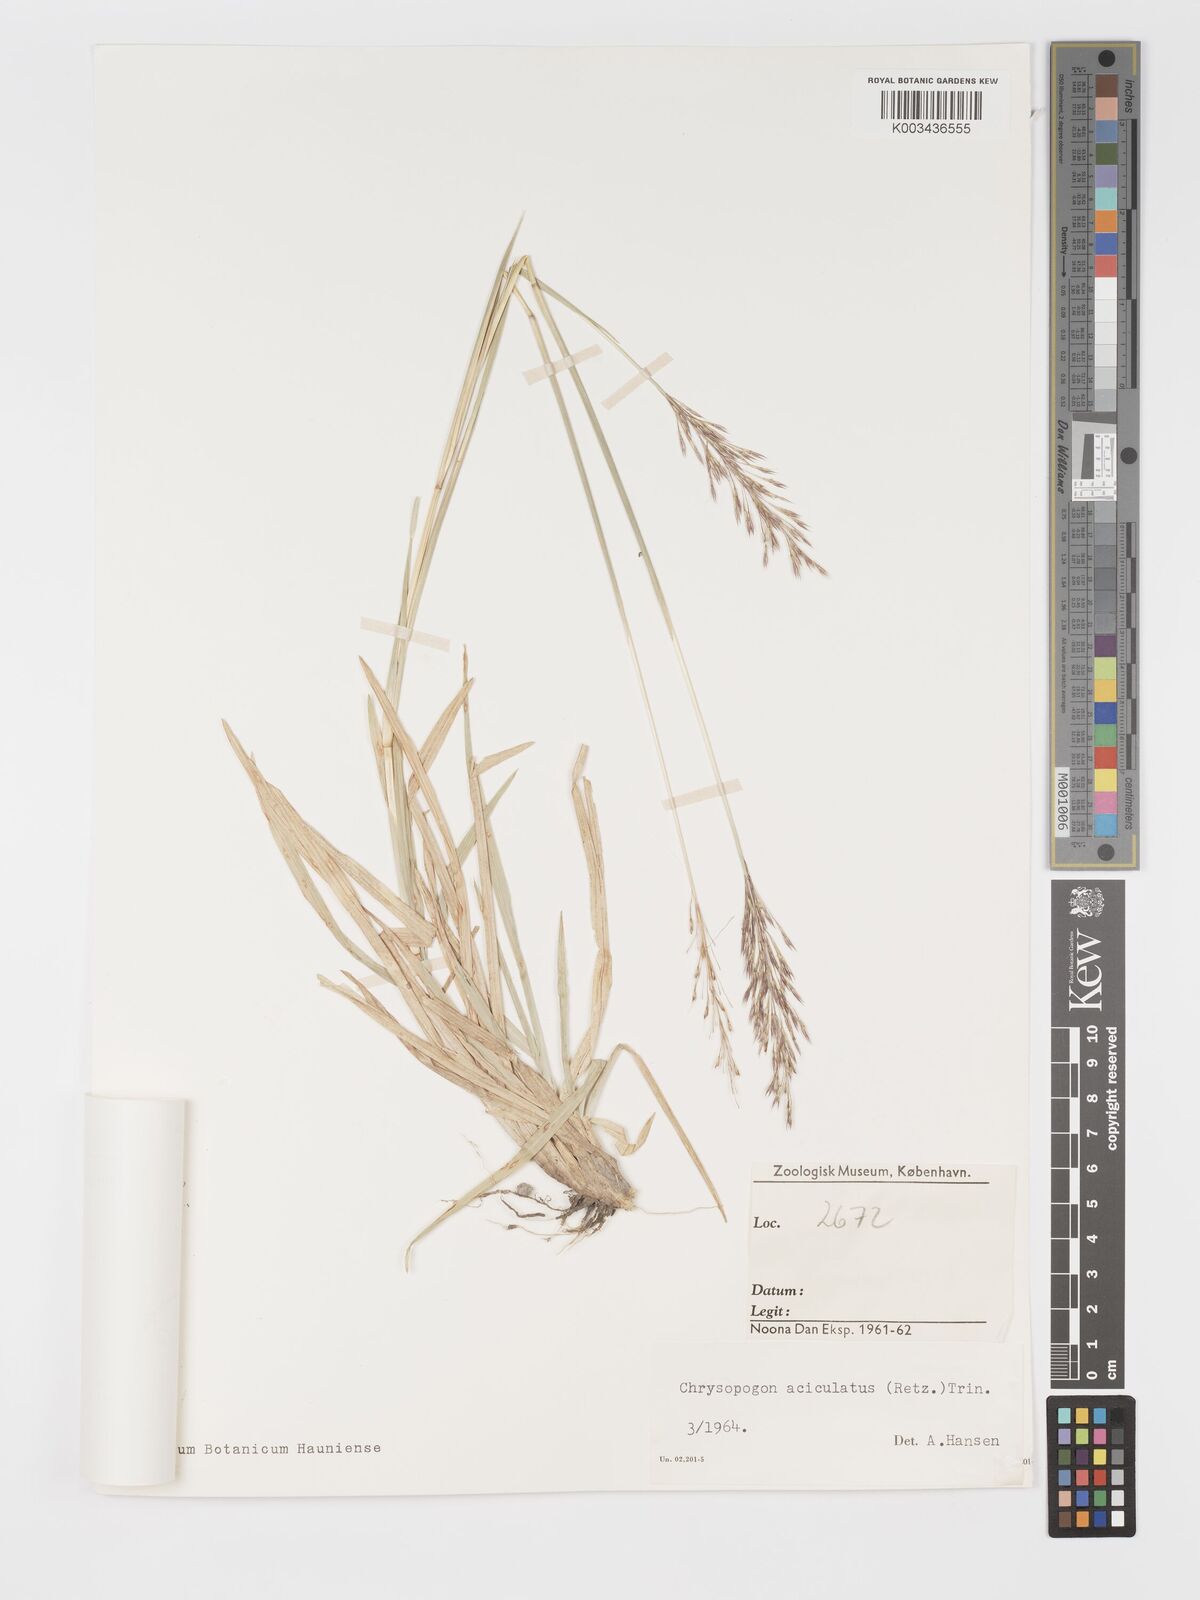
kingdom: Plantae
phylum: Tracheophyta
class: Liliopsida
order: Poales
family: Poaceae
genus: Chrysopogon
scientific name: Chrysopogon aciculatus
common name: Pilipiliula
